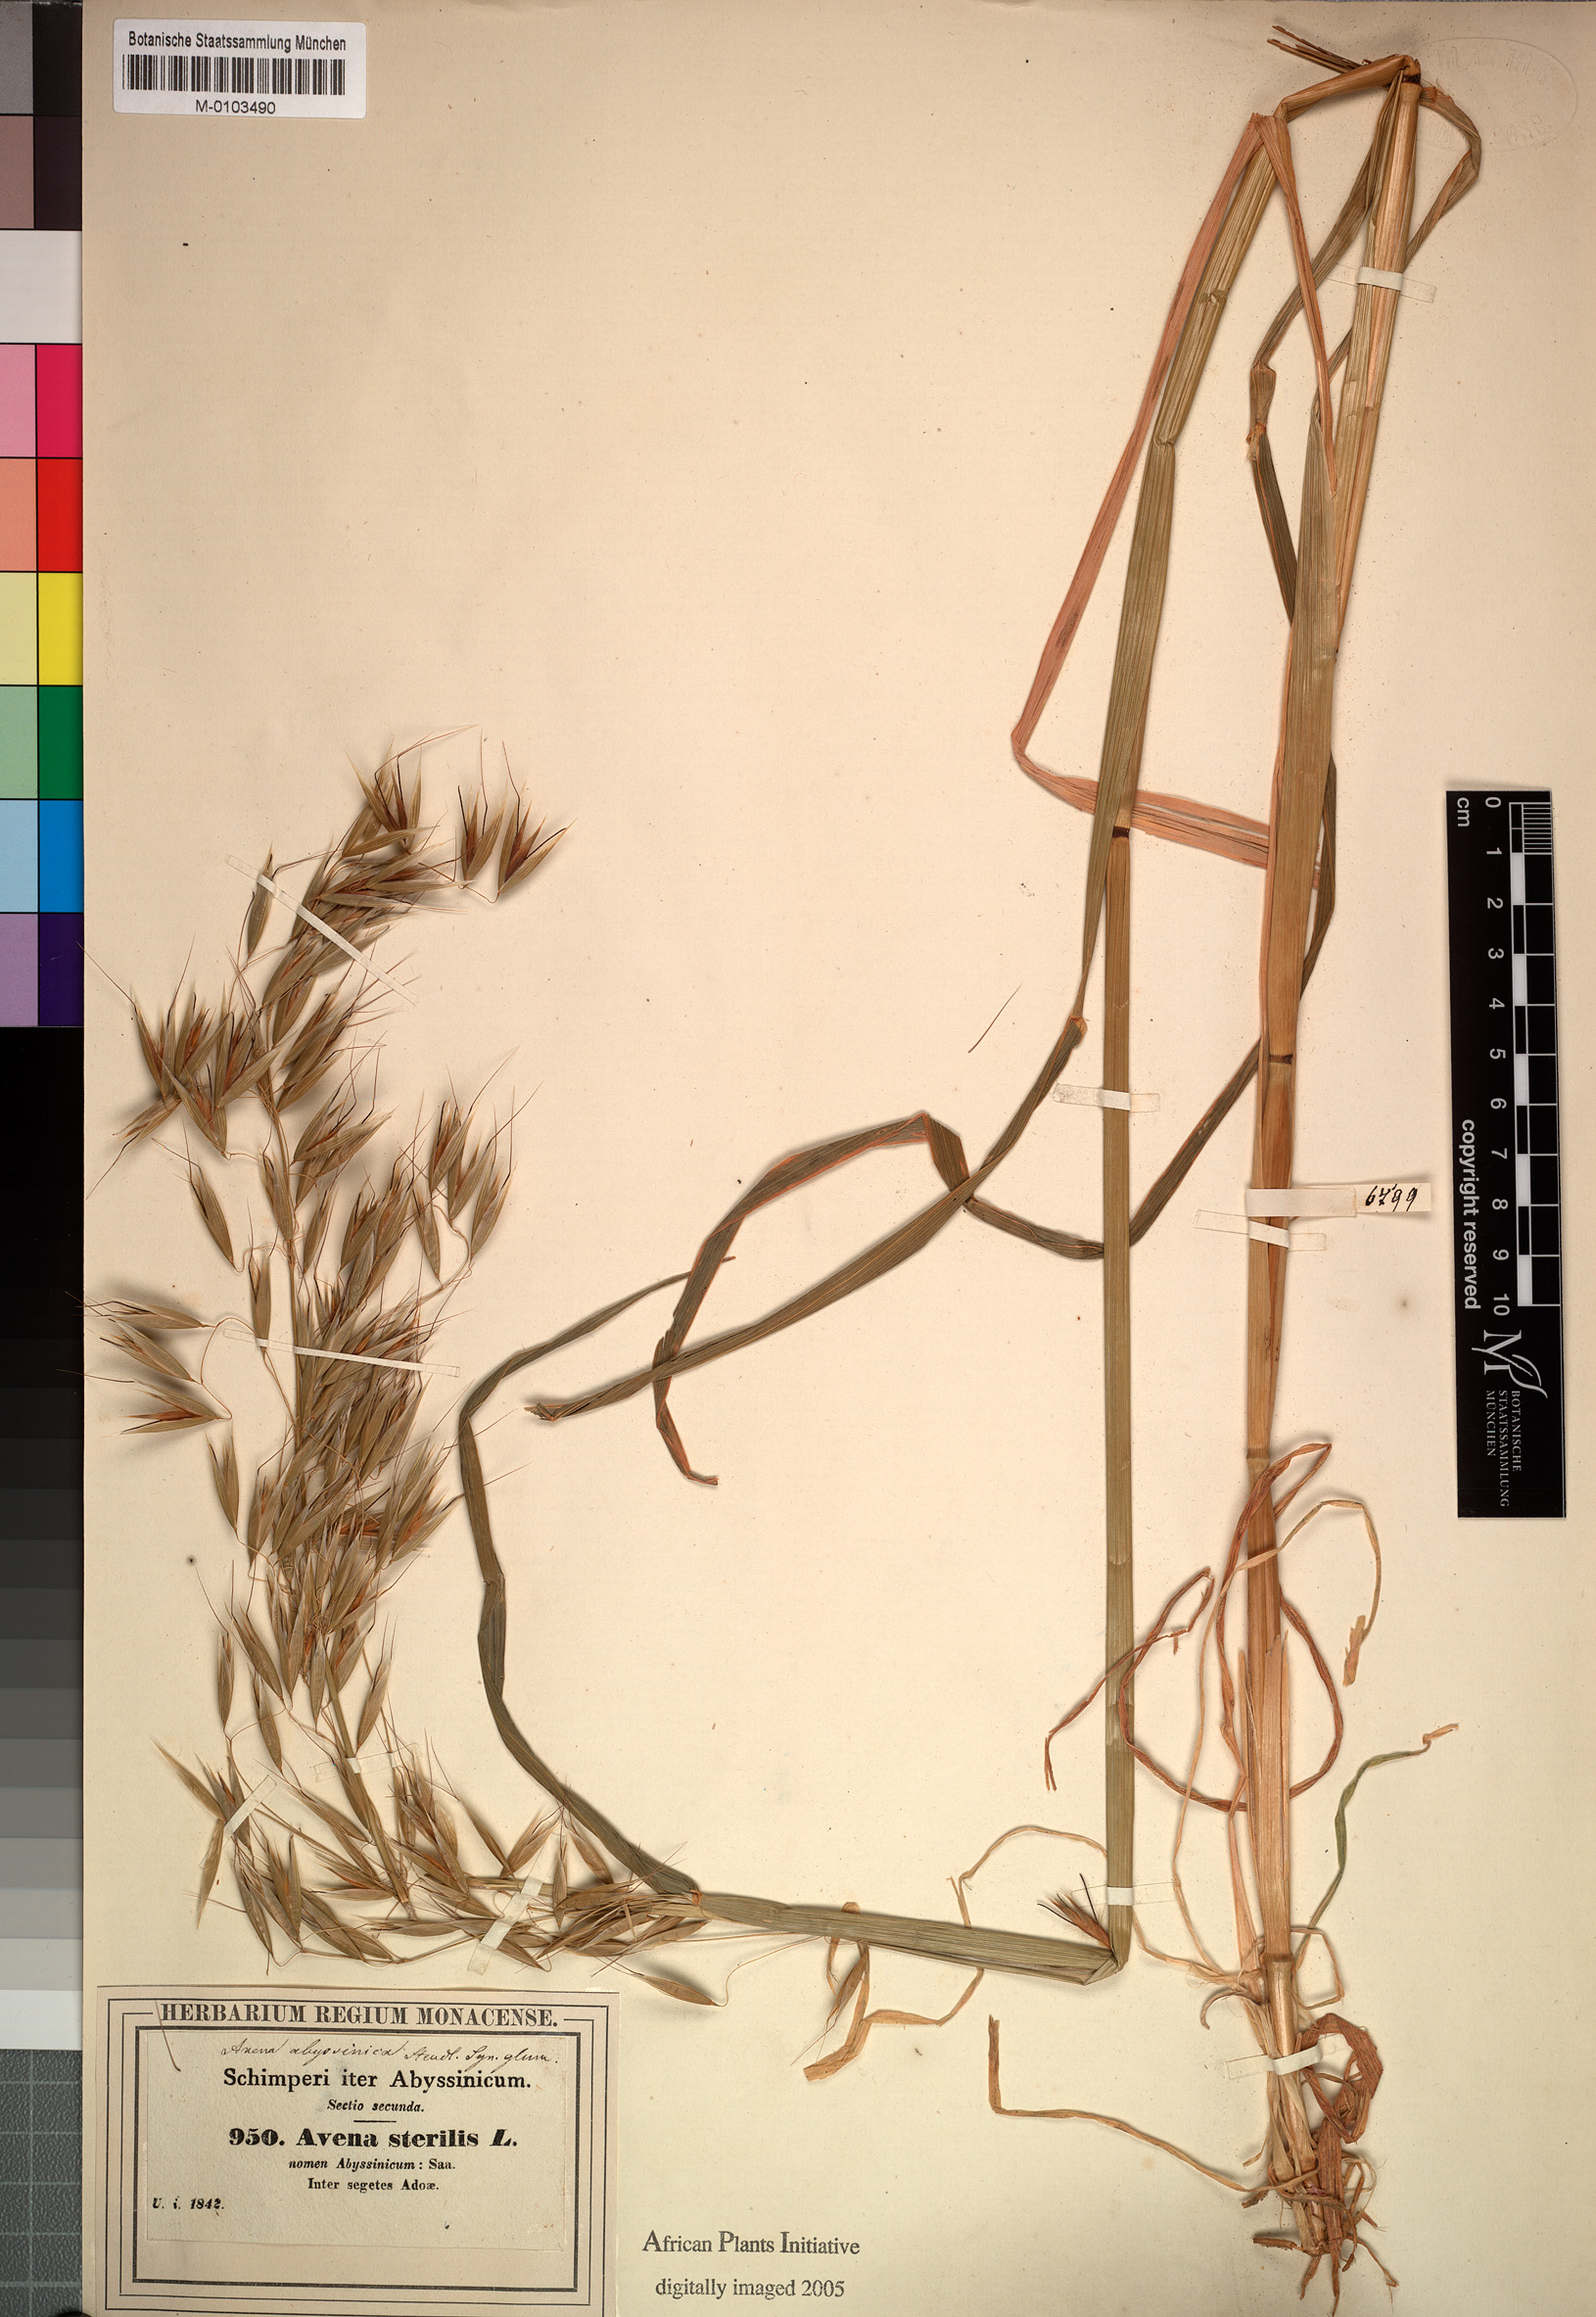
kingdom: Plantae
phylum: Tracheophyta
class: Liliopsida
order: Poales
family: Poaceae
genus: Avena
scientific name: Avena vaviloviana
